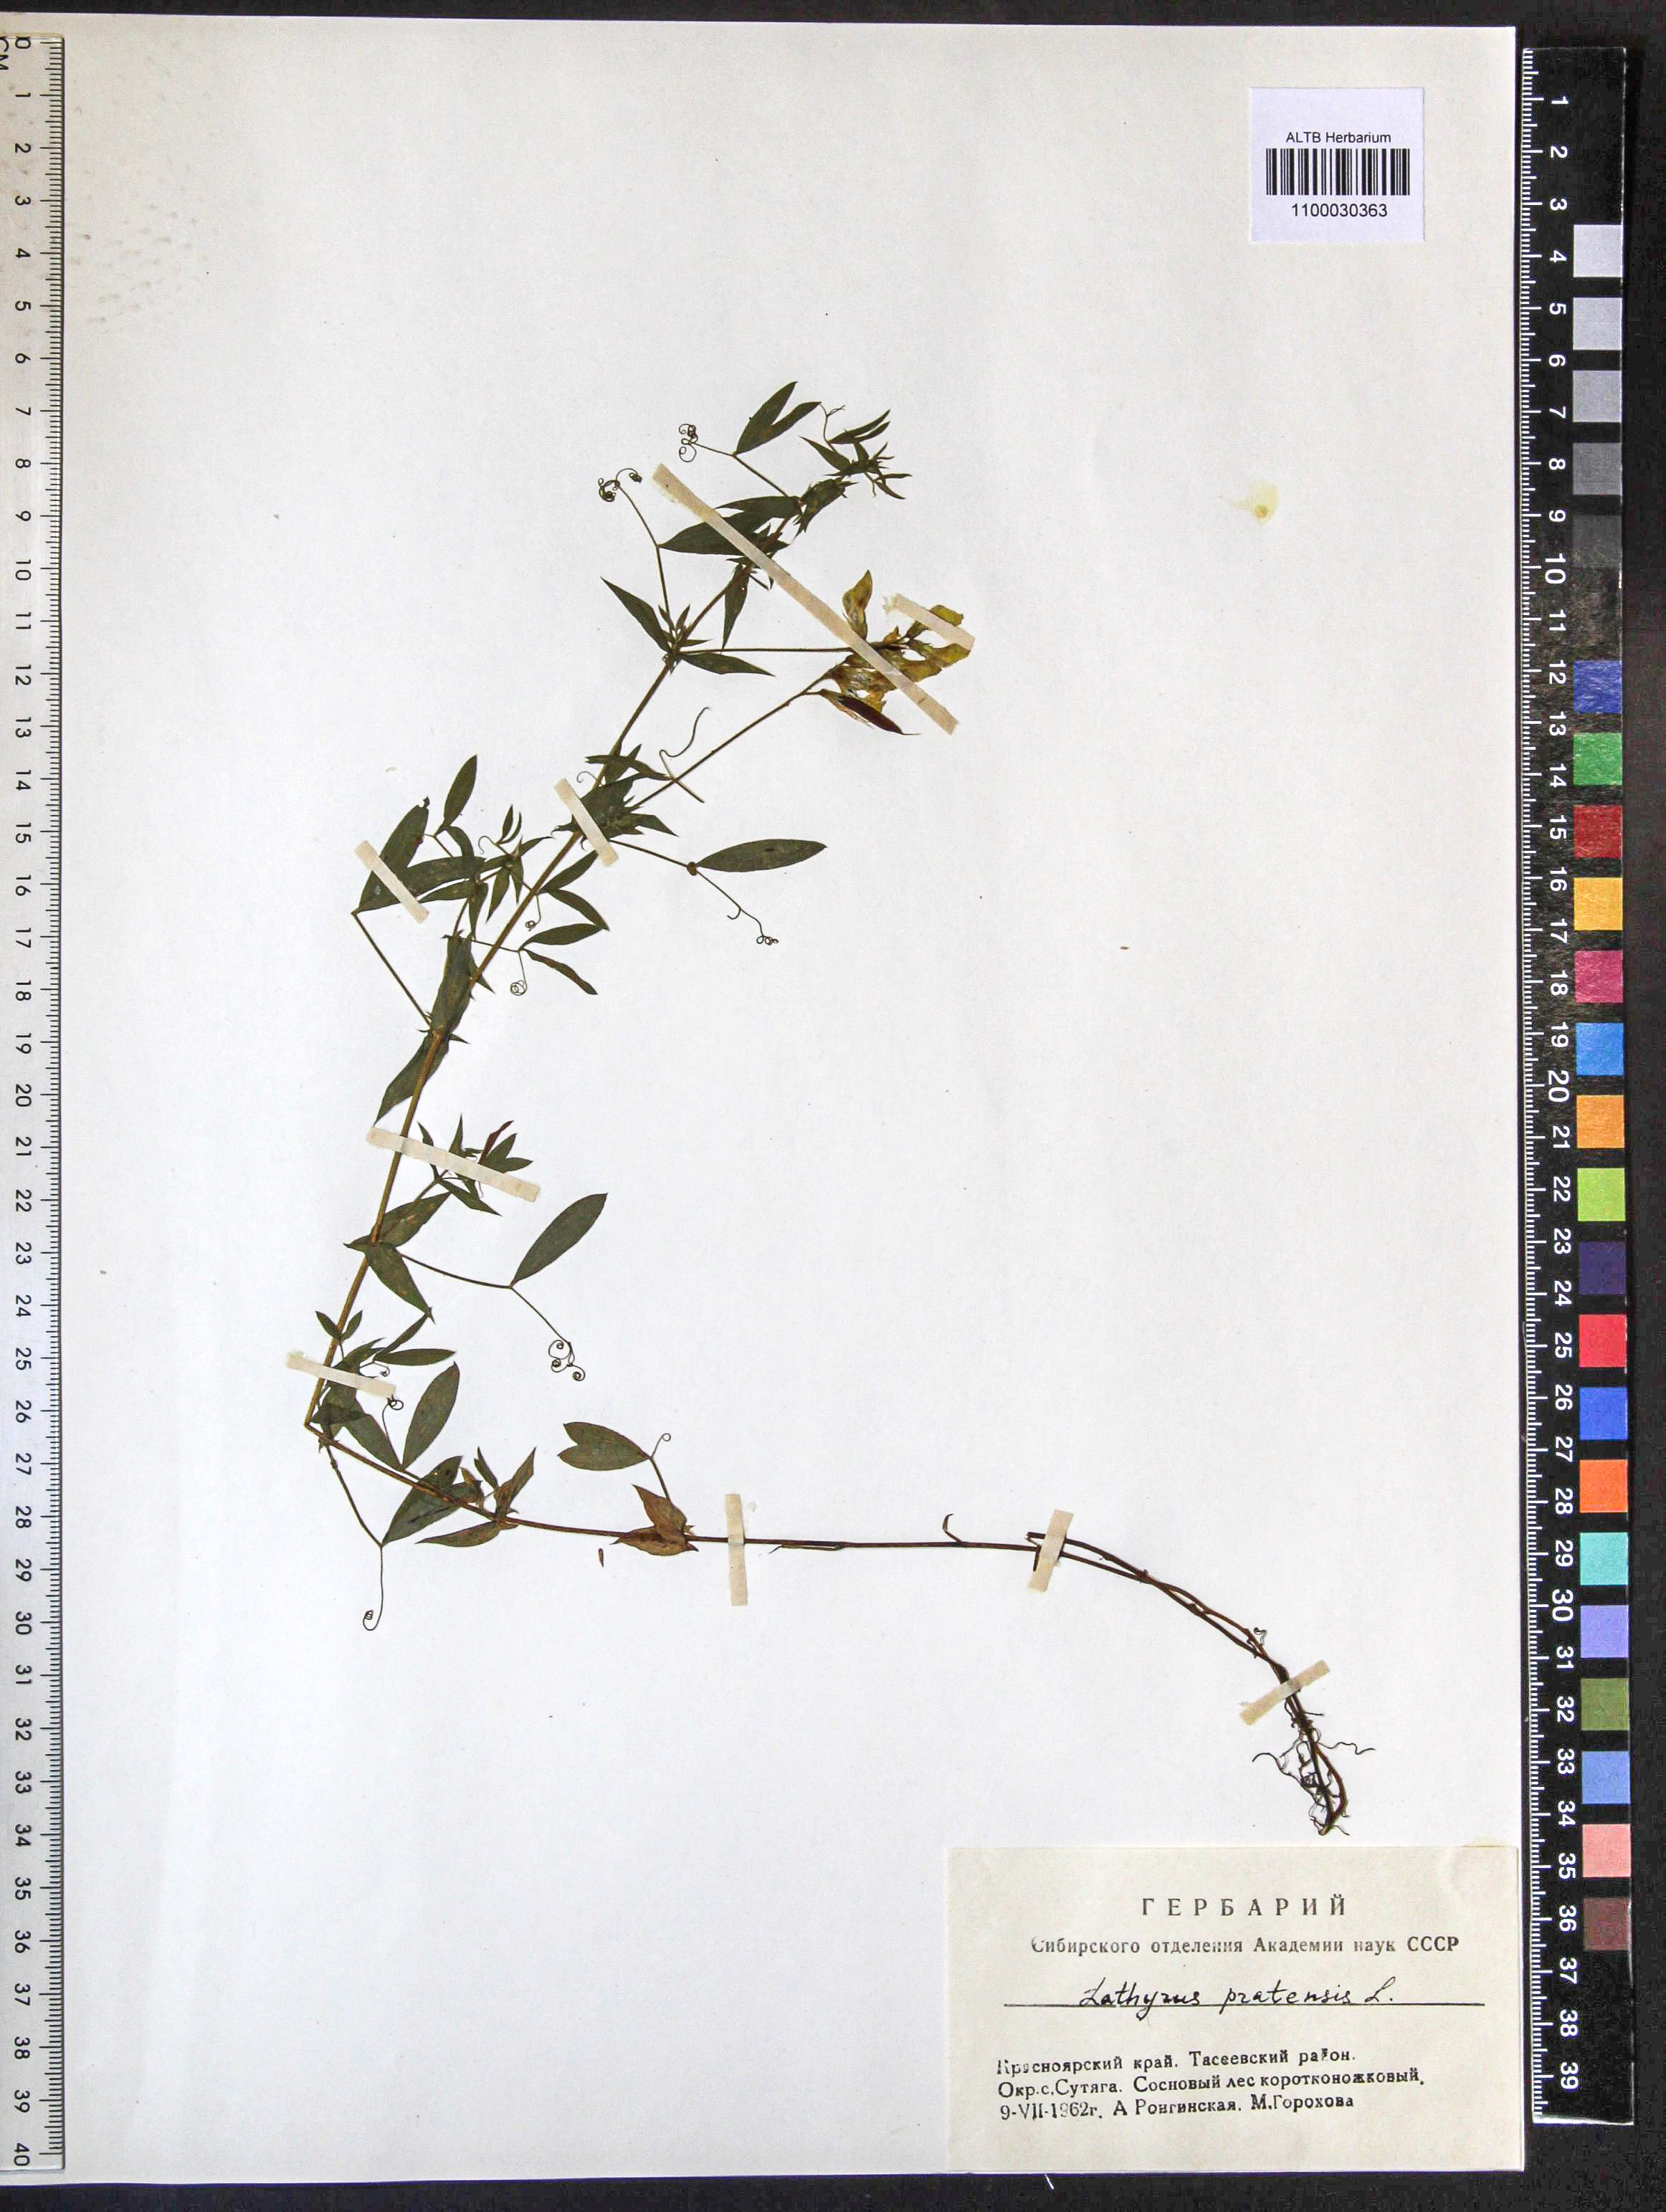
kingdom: Plantae
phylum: Tracheophyta
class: Magnoliopsida
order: Fabales
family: Fabaceae
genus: Lathyrus
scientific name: Lathyrus pratensis
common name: Meadow vetchling
